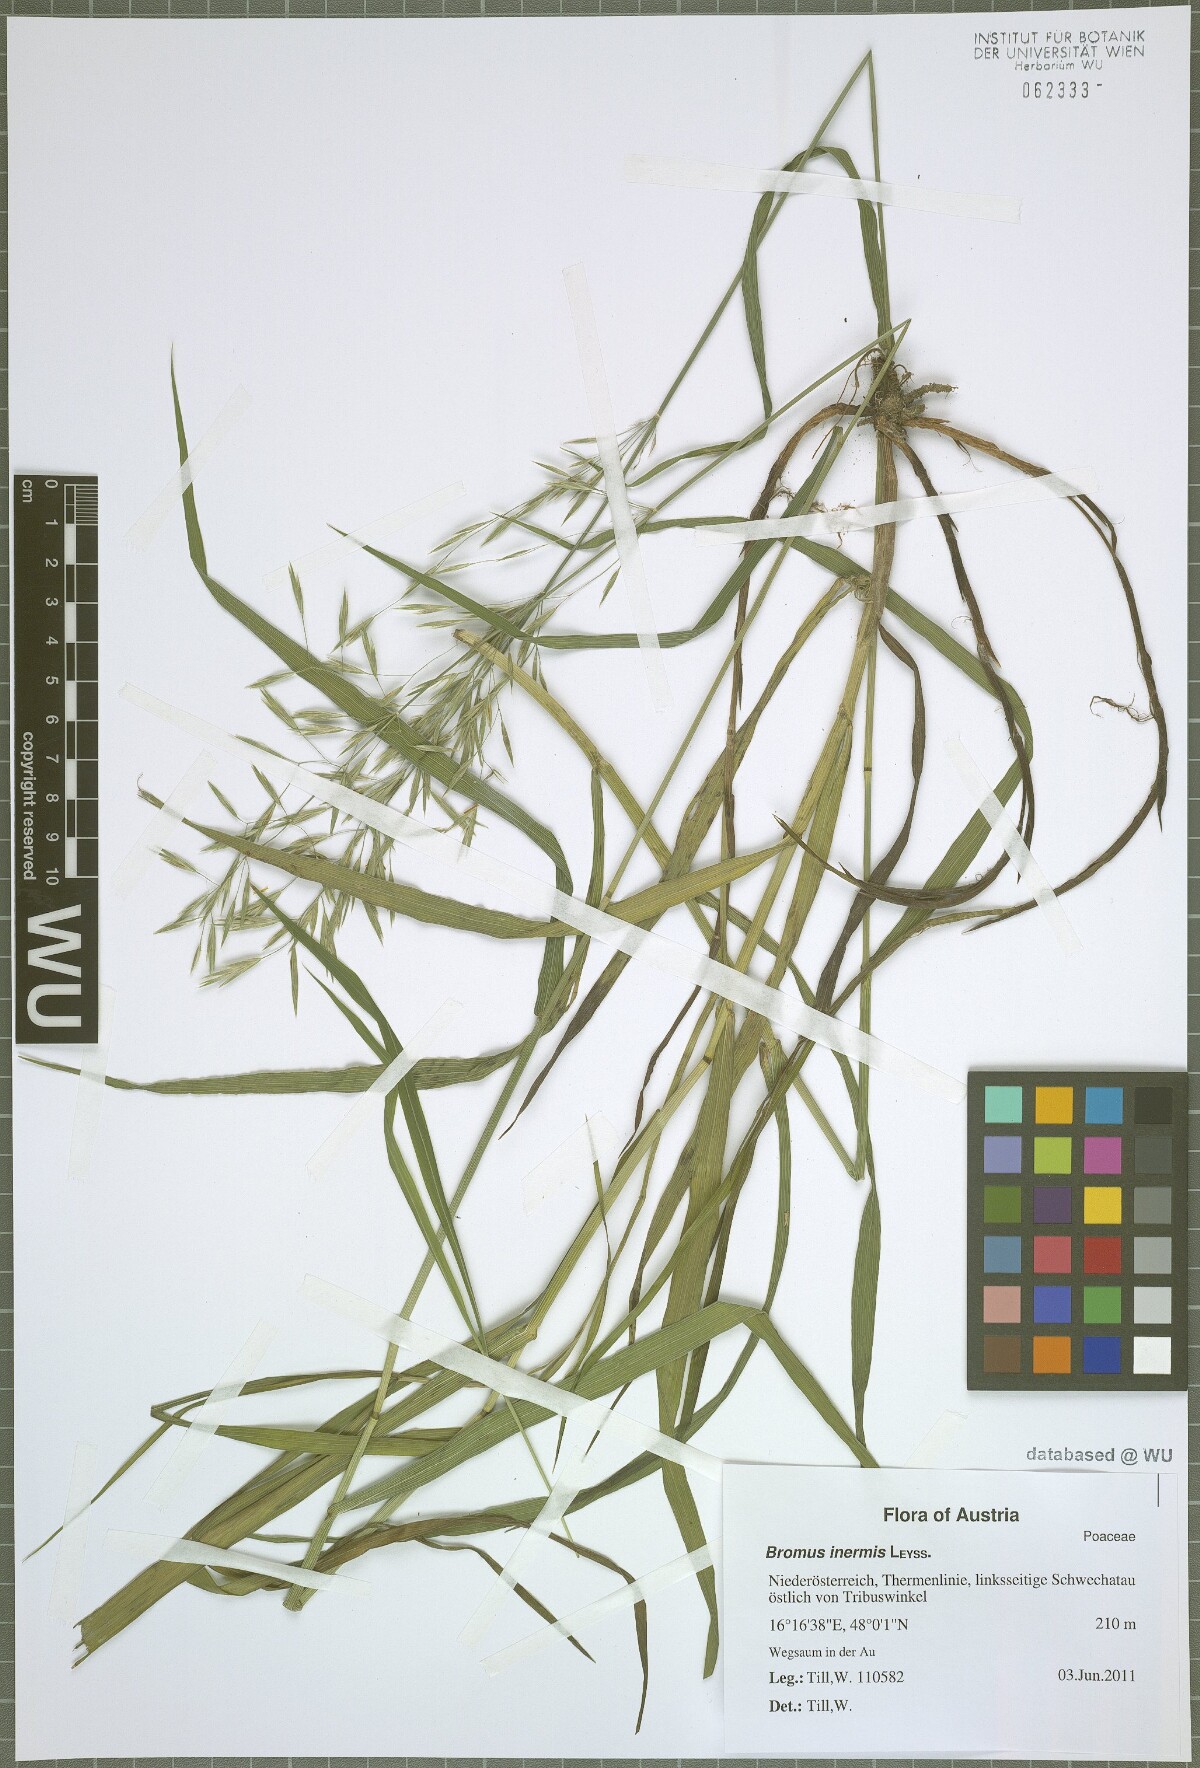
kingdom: Plantae
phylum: Tracheophyta
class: Liliopsida
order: Poales
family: Poaceae
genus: Bromus
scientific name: Bromus inermis
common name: Smooth brome
